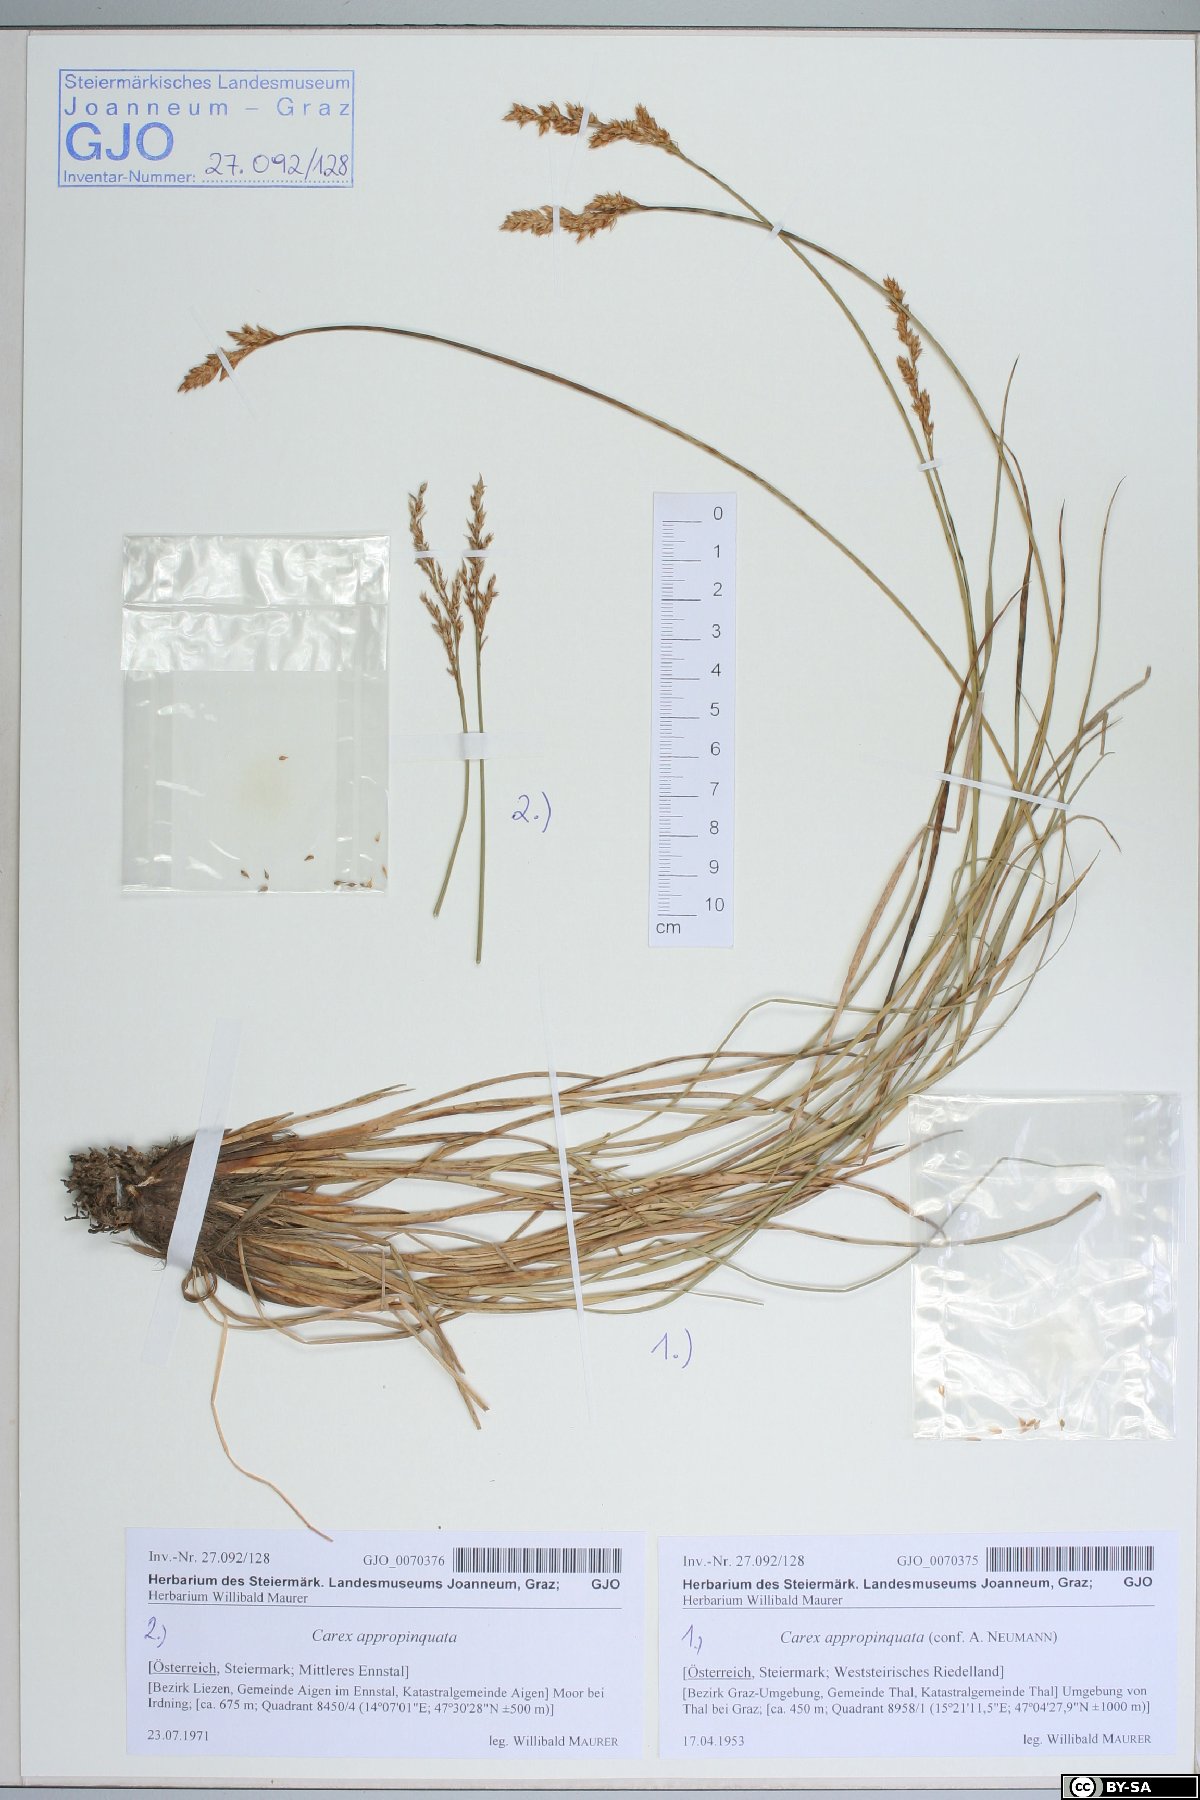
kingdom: Plantae
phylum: Tracheophyta
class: Liliopsida
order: Poales
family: Cyperaceae
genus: Carex
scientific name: Carex appropinquata
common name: Fibrous tussock-sedge
